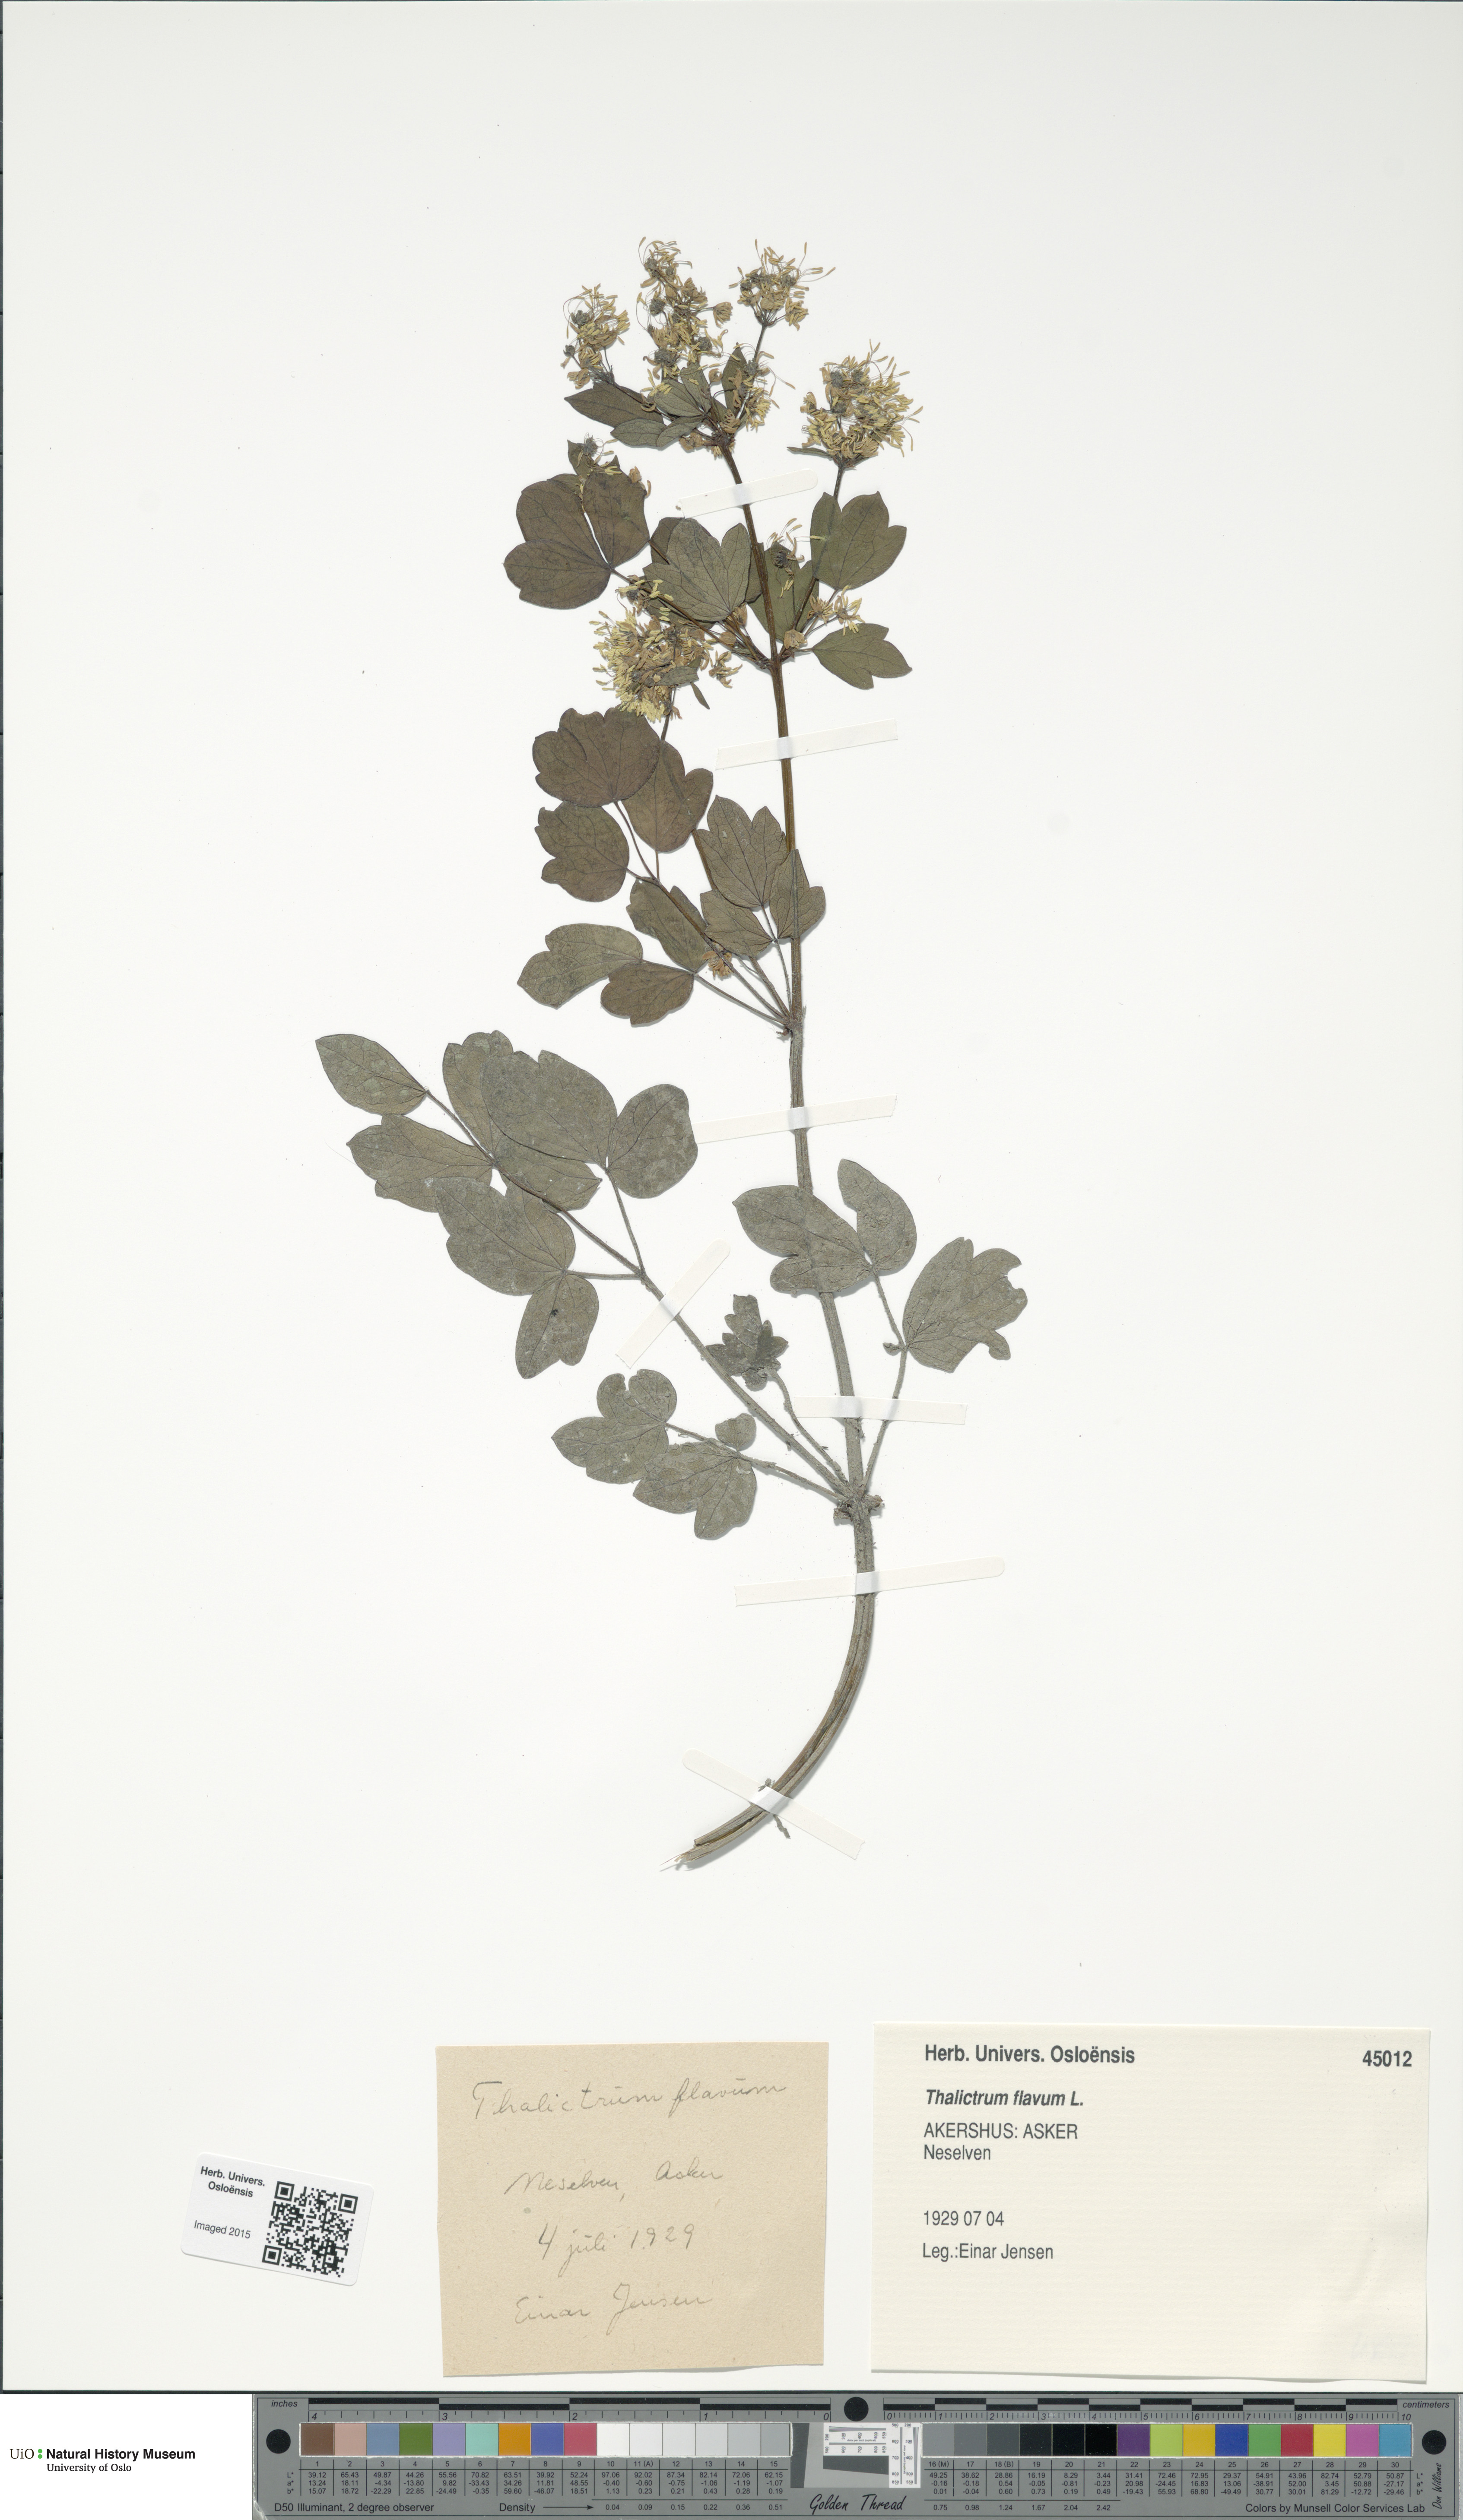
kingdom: Plantae
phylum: Tracheophyta
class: Magnoliopsida
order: Ranunculales
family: Ranunculaceae
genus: Thalictrum
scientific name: Thalictrum flavum
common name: Common meadow-rue
